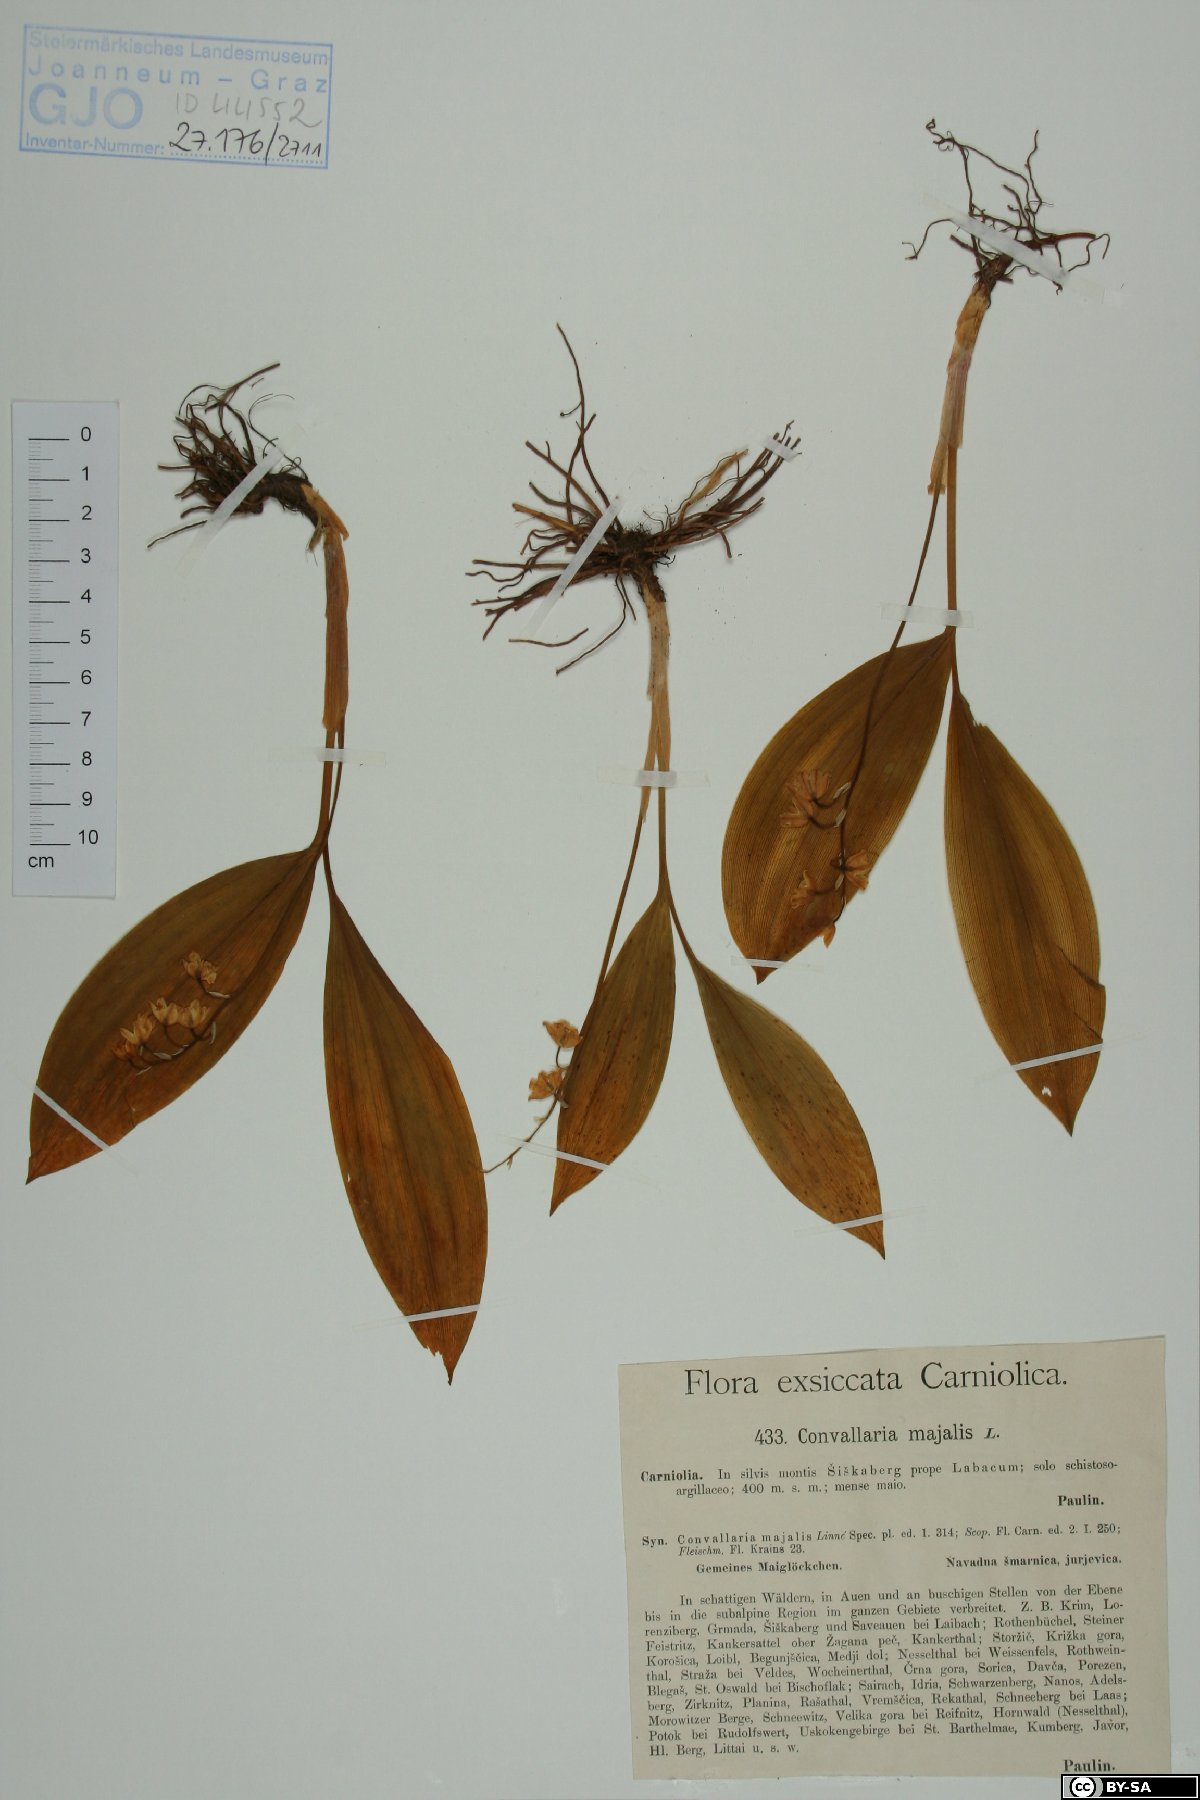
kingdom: Plantae
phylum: Tracheophyta
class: Liliopsida
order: Asparagales
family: Asparagaceae
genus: Convallaria
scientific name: Convallaria majalis
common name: Lily-of-the-valley
